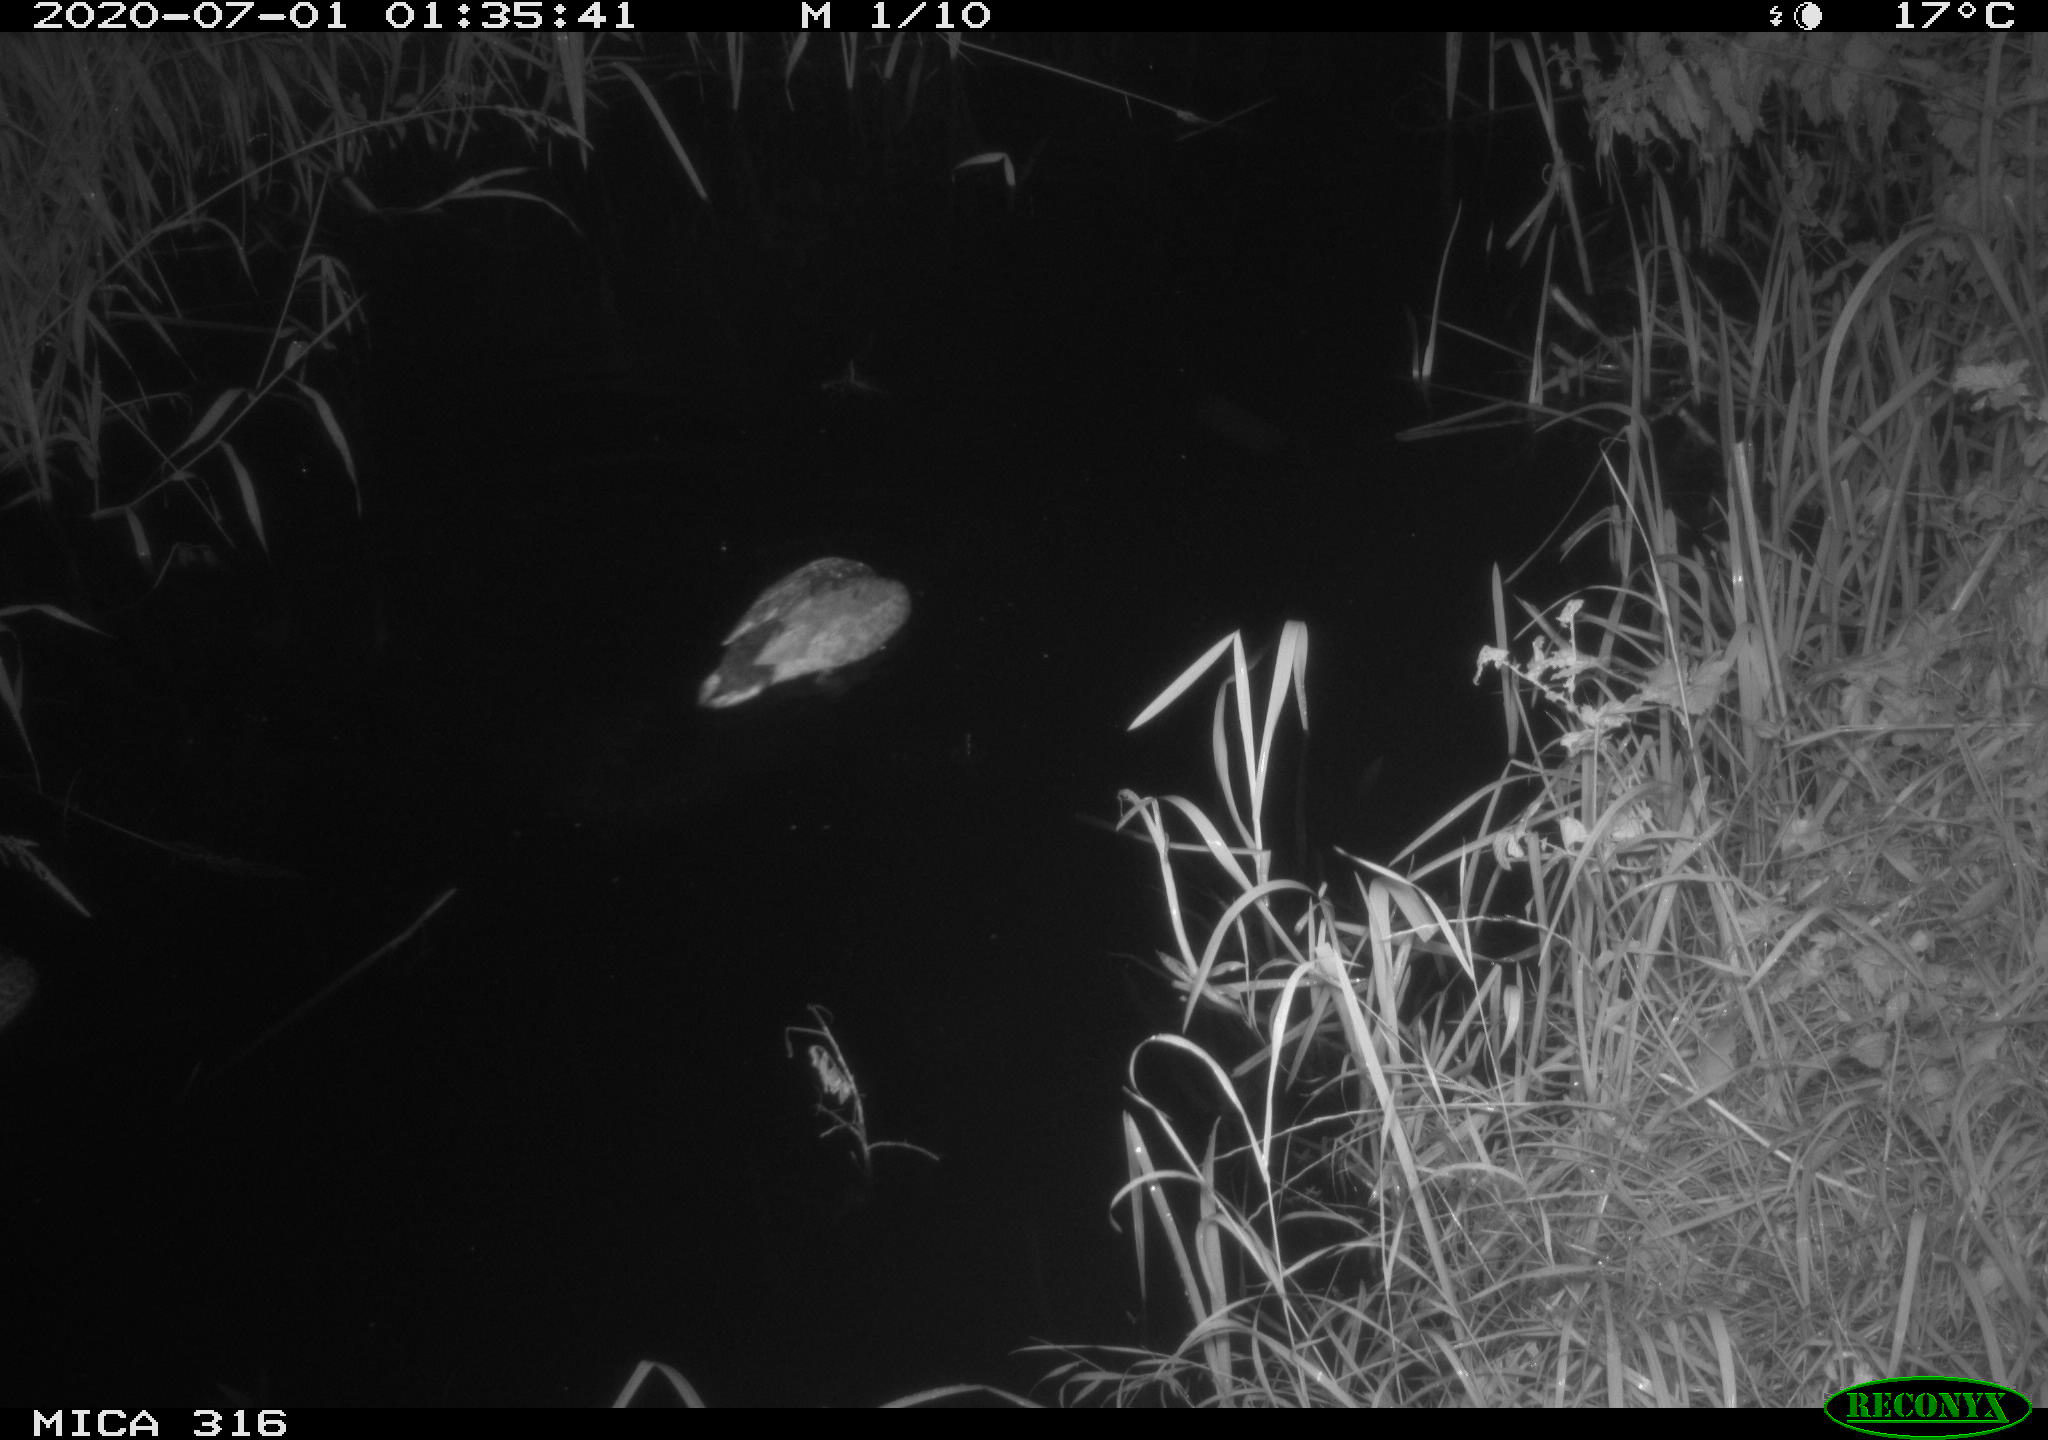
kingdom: Animalia
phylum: Chordata
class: Aves
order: Anseriformes
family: Anatidae
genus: Anas
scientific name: Anas platyrhynchos
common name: Mallard
